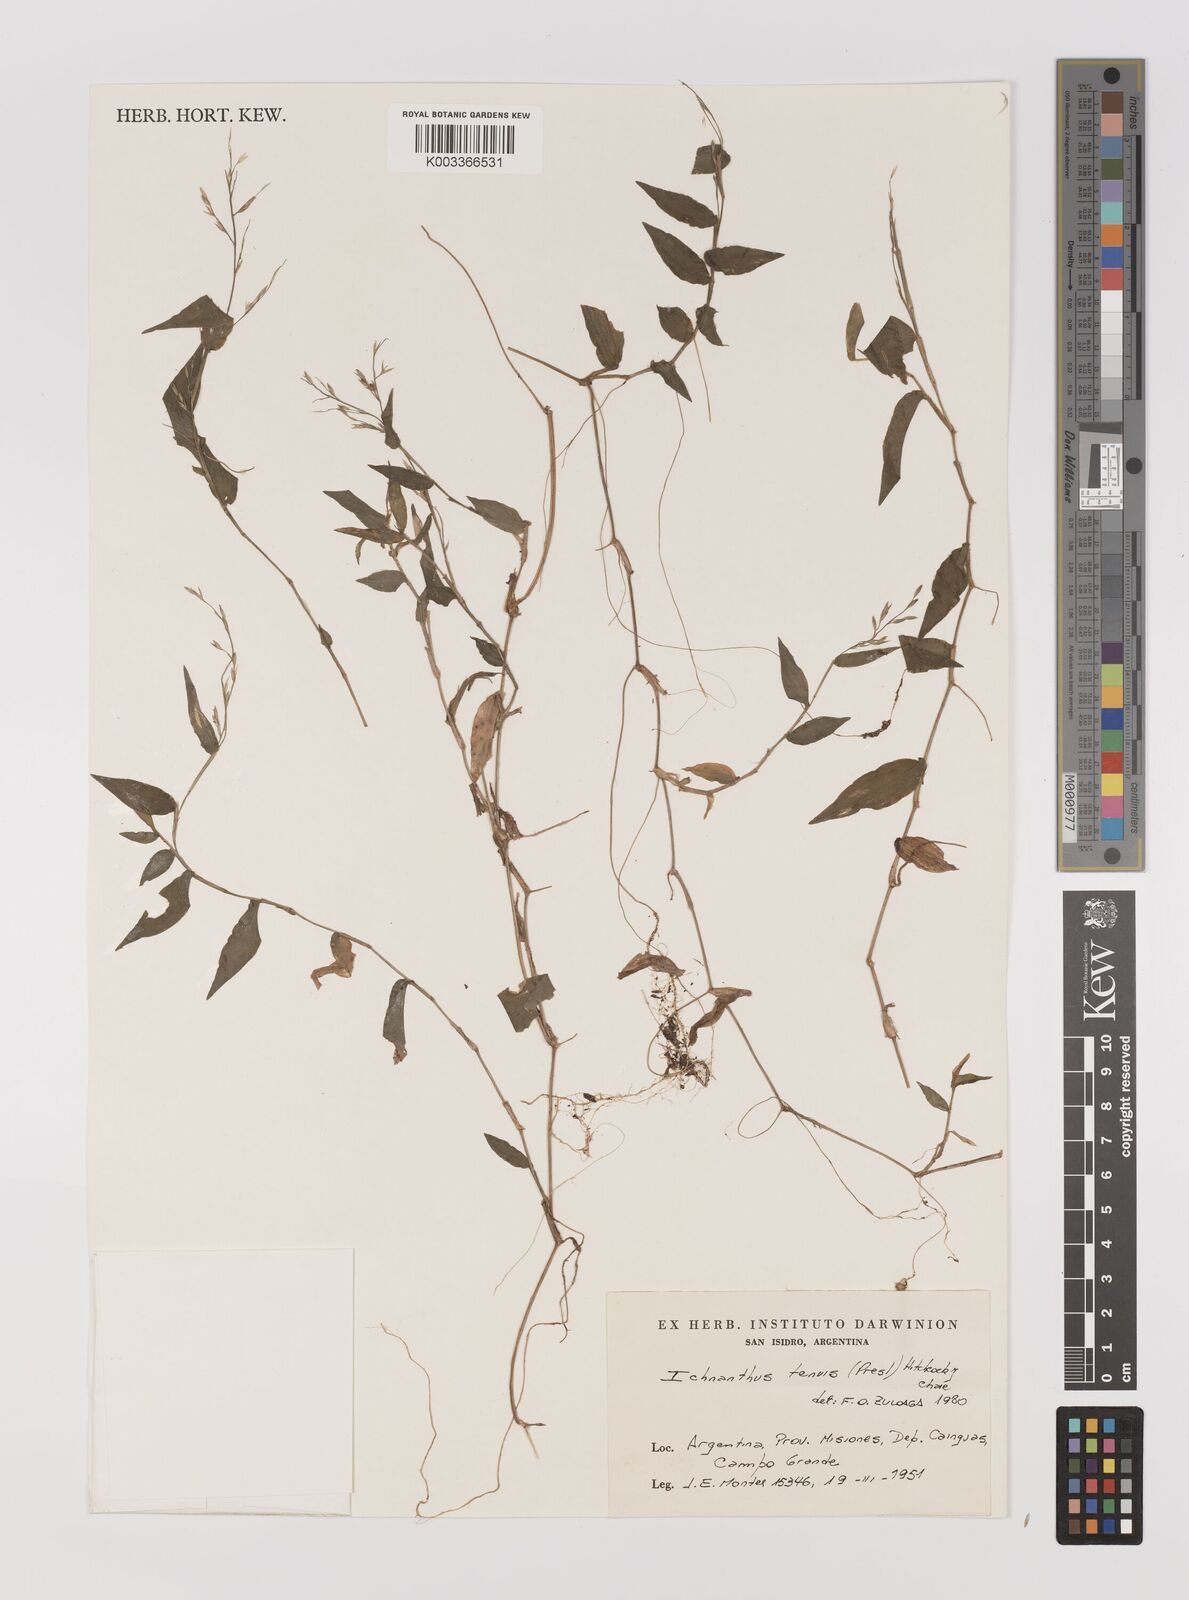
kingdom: Plantae
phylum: Tracheophyta
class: Liliopsida
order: Poales
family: Poaceae
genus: Ichnanthus
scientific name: Ichnanthus tenuis
